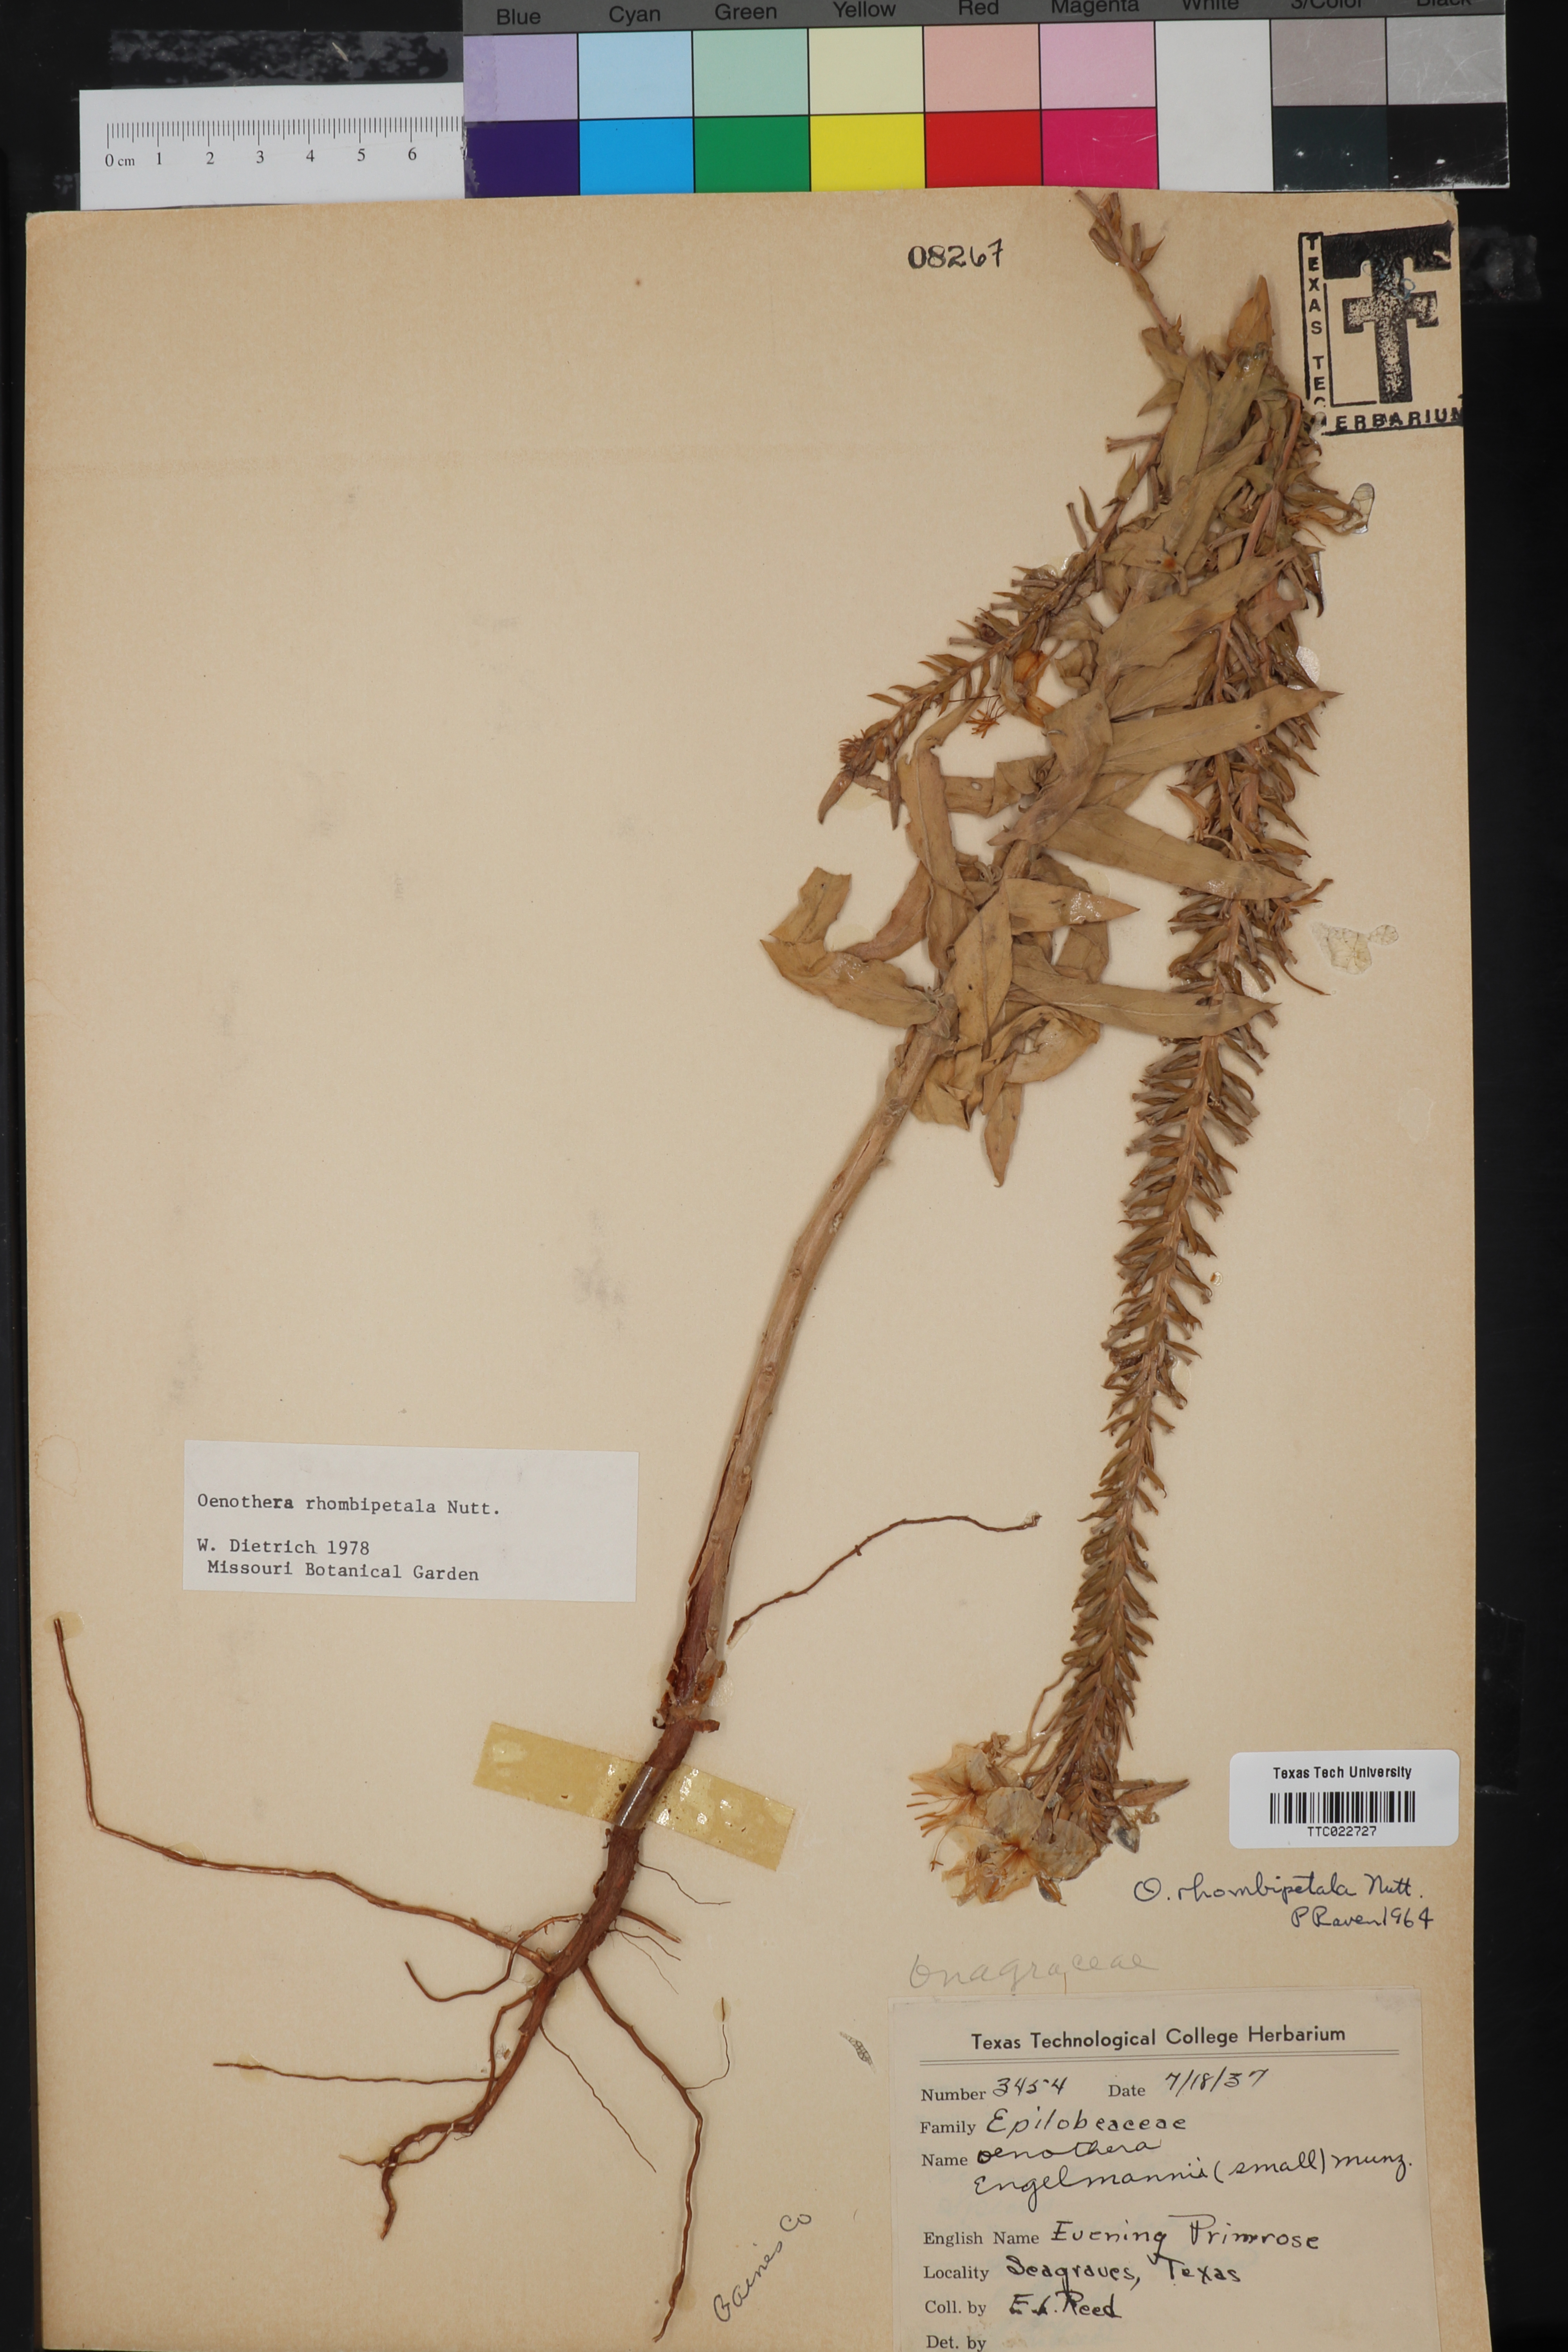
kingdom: Plantae
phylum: Tracheophyta
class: Magnoliopsida
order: Myrtales
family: Onagraceae
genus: Oenothera
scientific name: Oenothera rhombipetala
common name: Four-points evening-primrose
